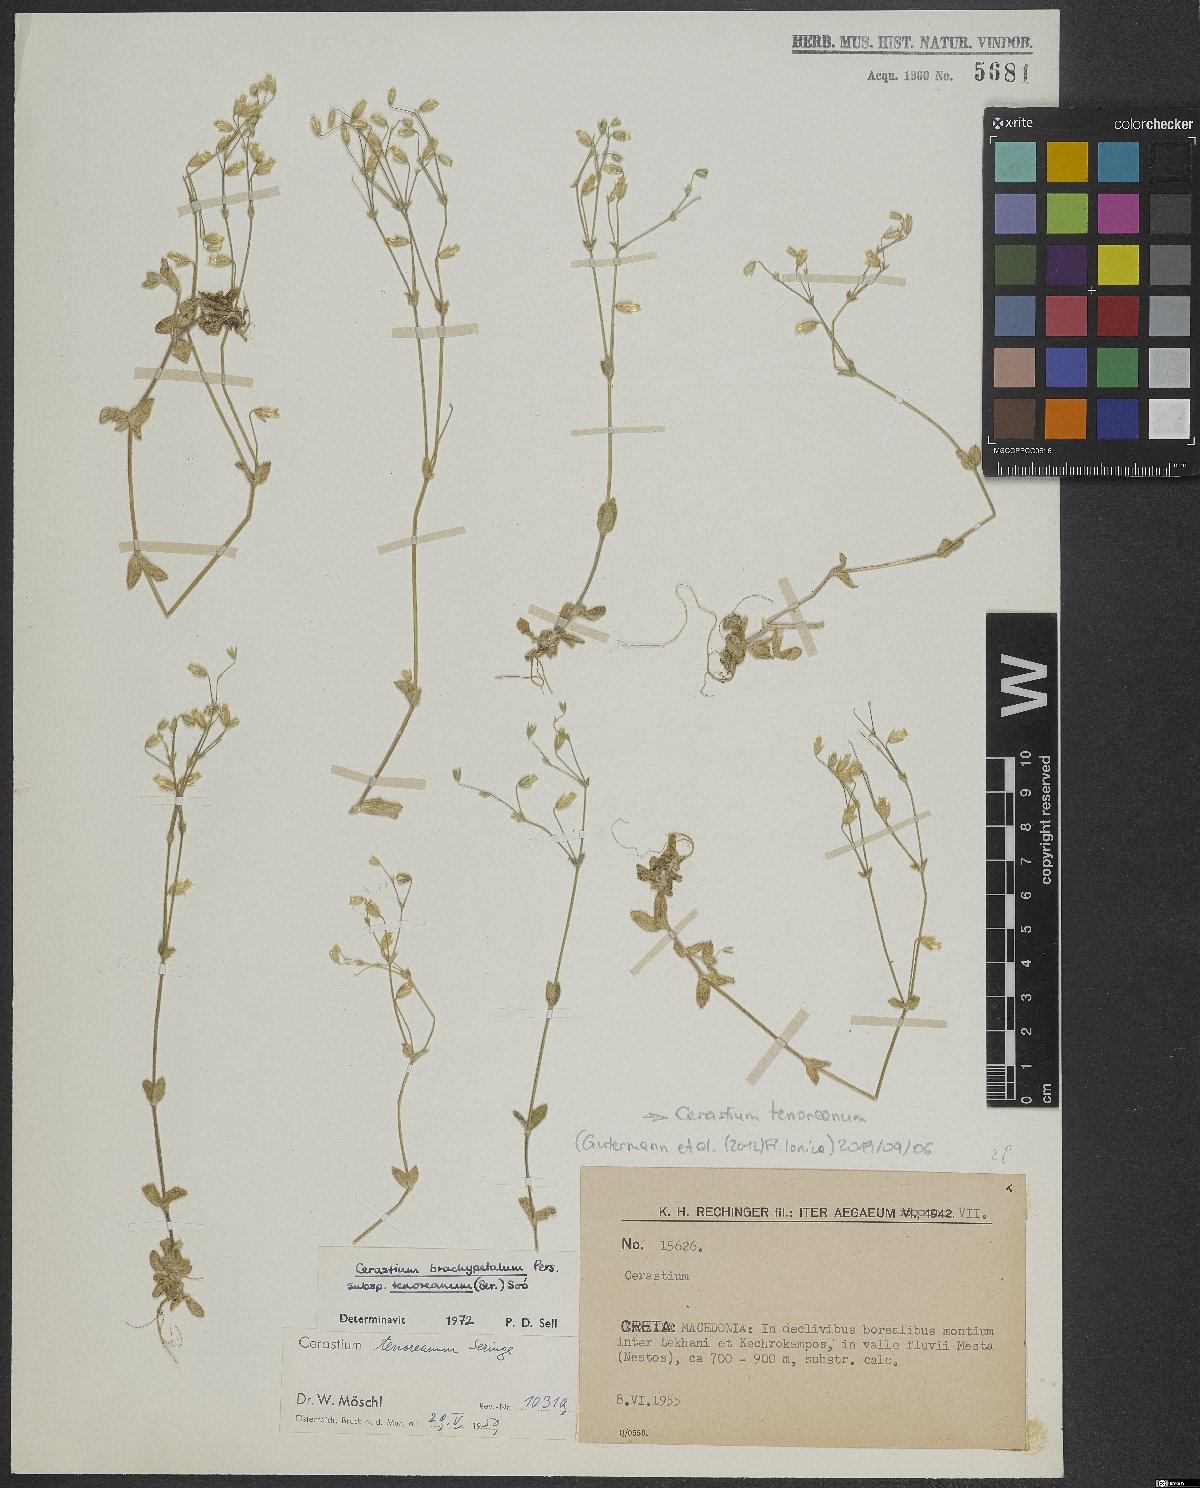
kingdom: Plantae
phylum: Tracheophyta
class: Magnoliopsida
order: Caryophyllales
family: Caryophyllaceae
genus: Cerastium
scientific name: Cerastium tenoreanum
